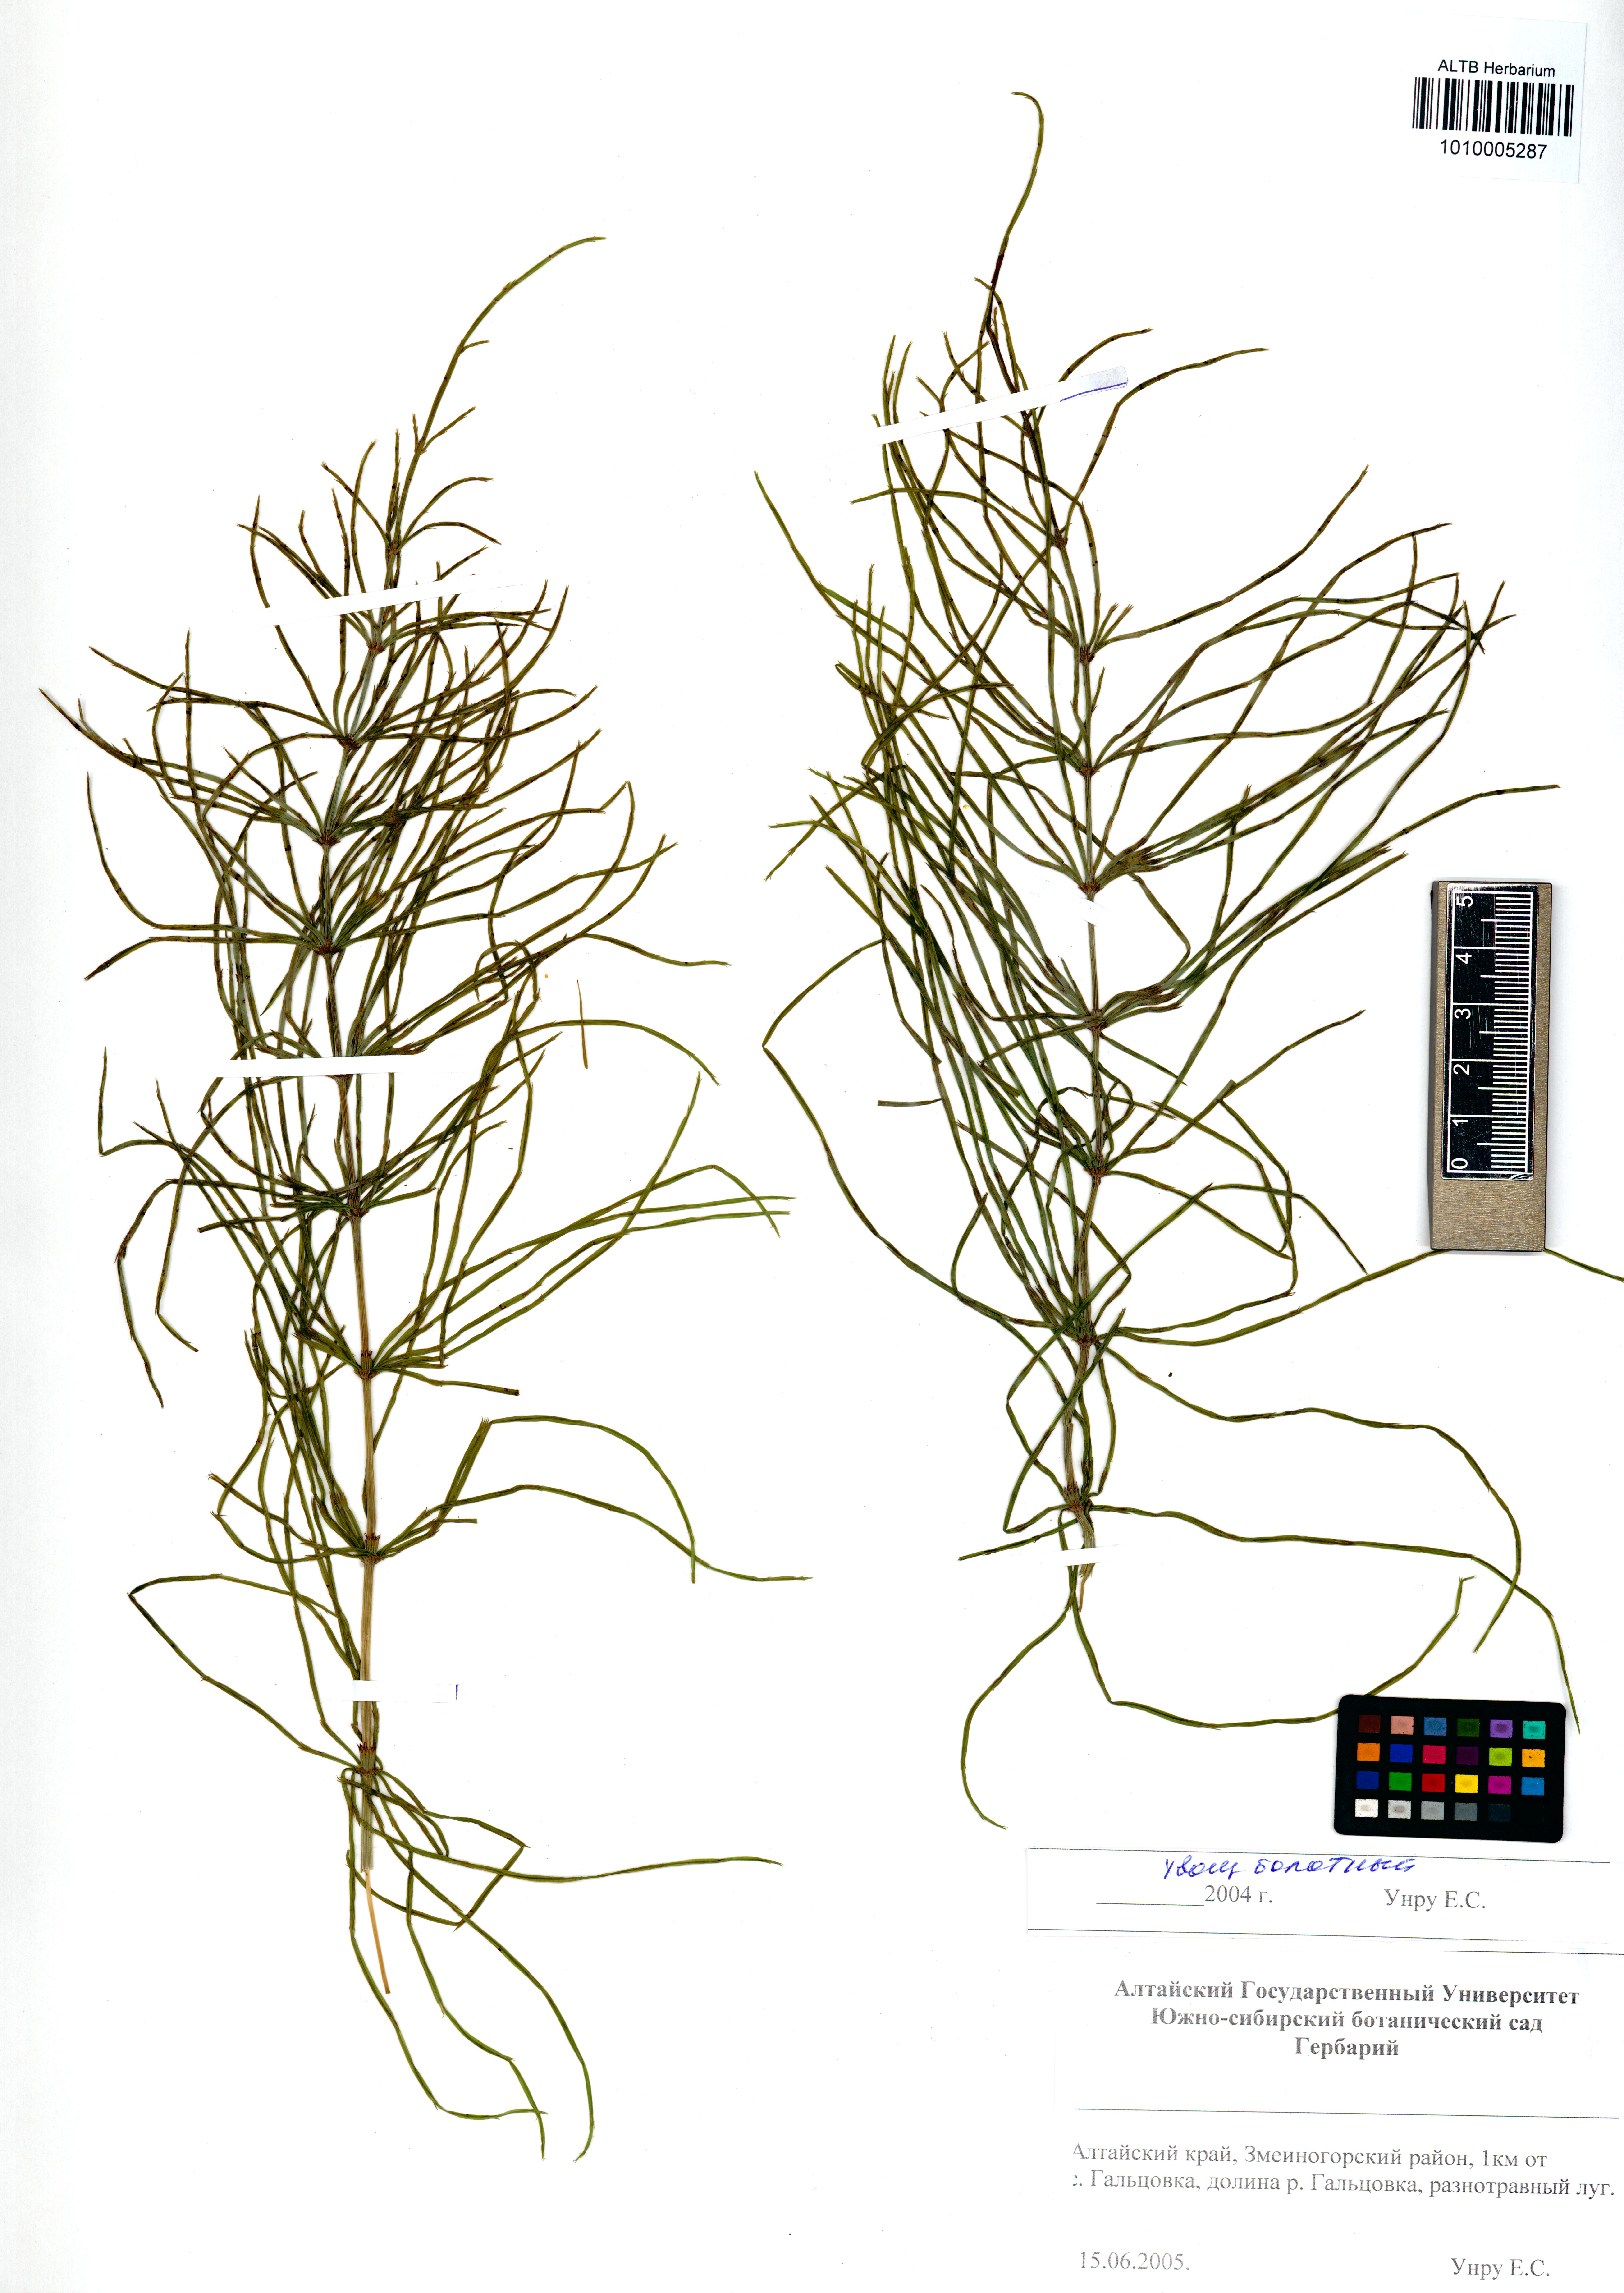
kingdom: Plantae
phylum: Tracheophyta
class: Polypodiopsida
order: Equisetales
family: Equisetaceae
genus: Equisetum
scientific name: Equisetum pratense
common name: Meadow horsetail
